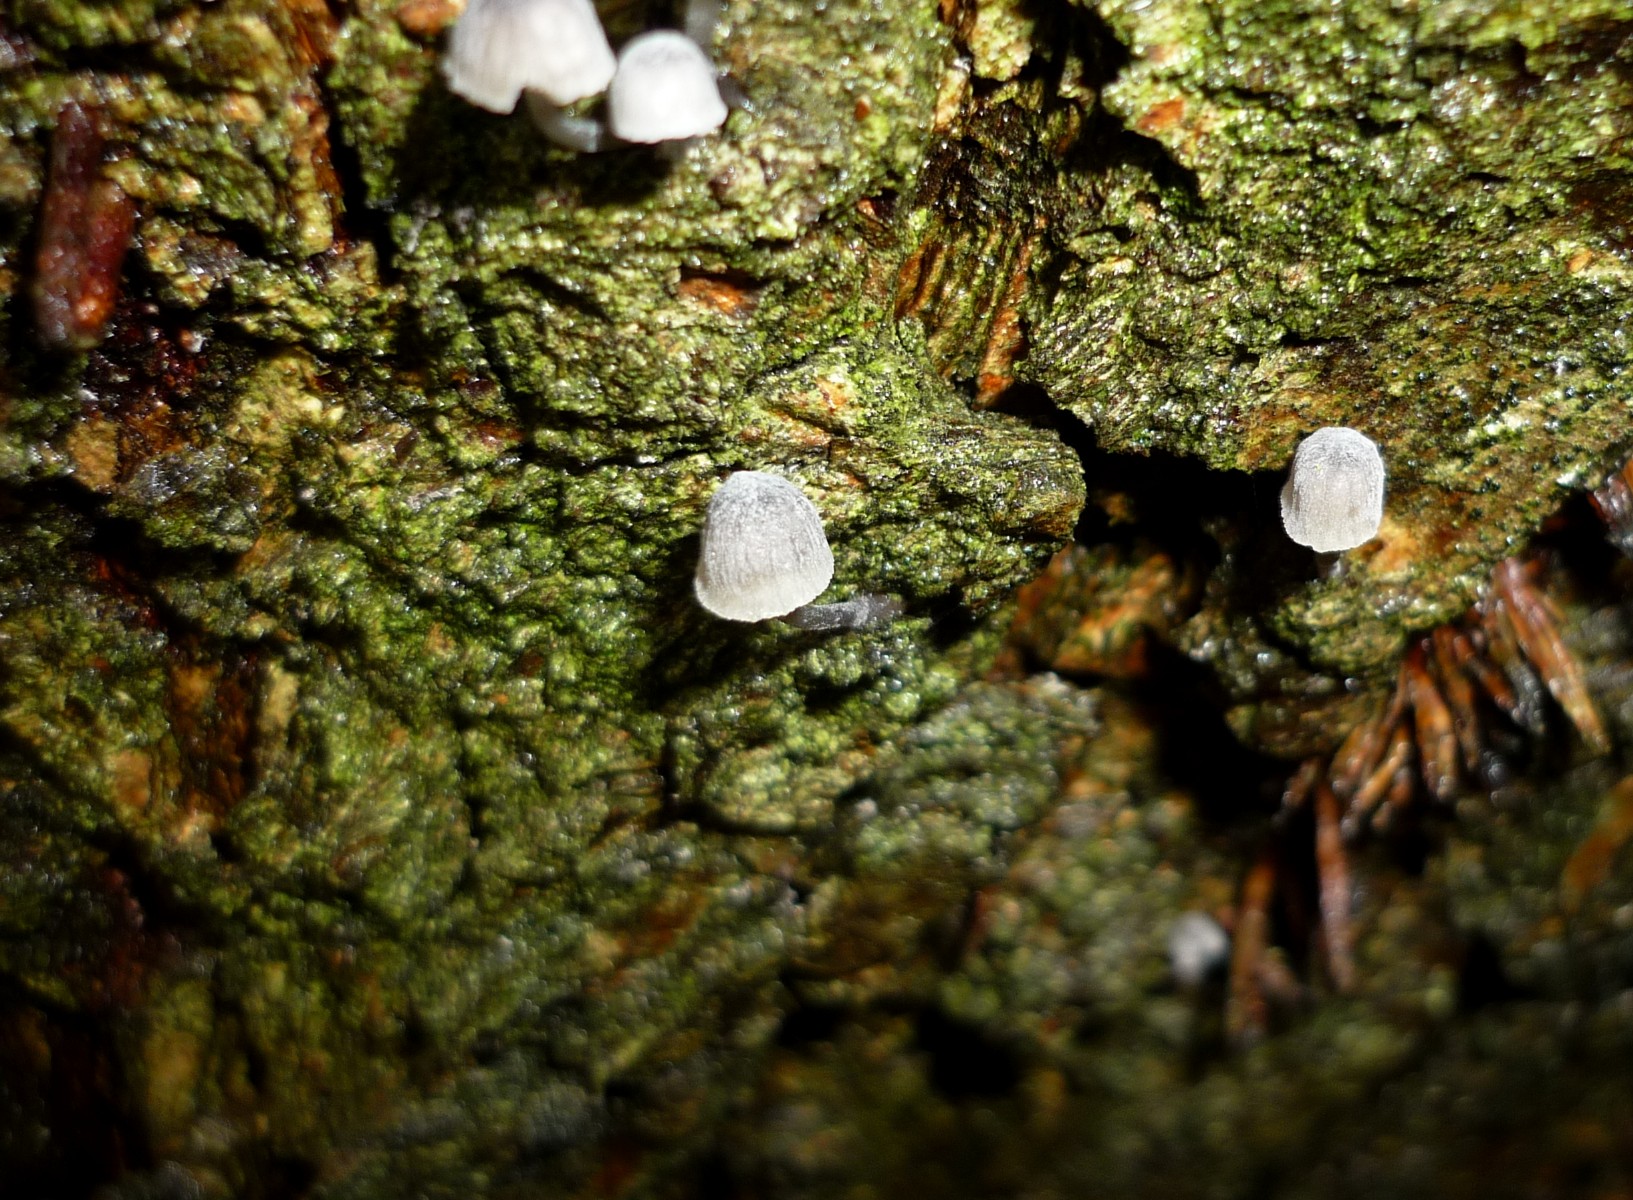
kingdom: Fungi
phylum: Basidiomycota
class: Agaricomycetes
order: Agaricales
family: Mycenaceae
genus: Mycena
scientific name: Mycena pseudocorticola
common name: gråblå bark-huesvamp
